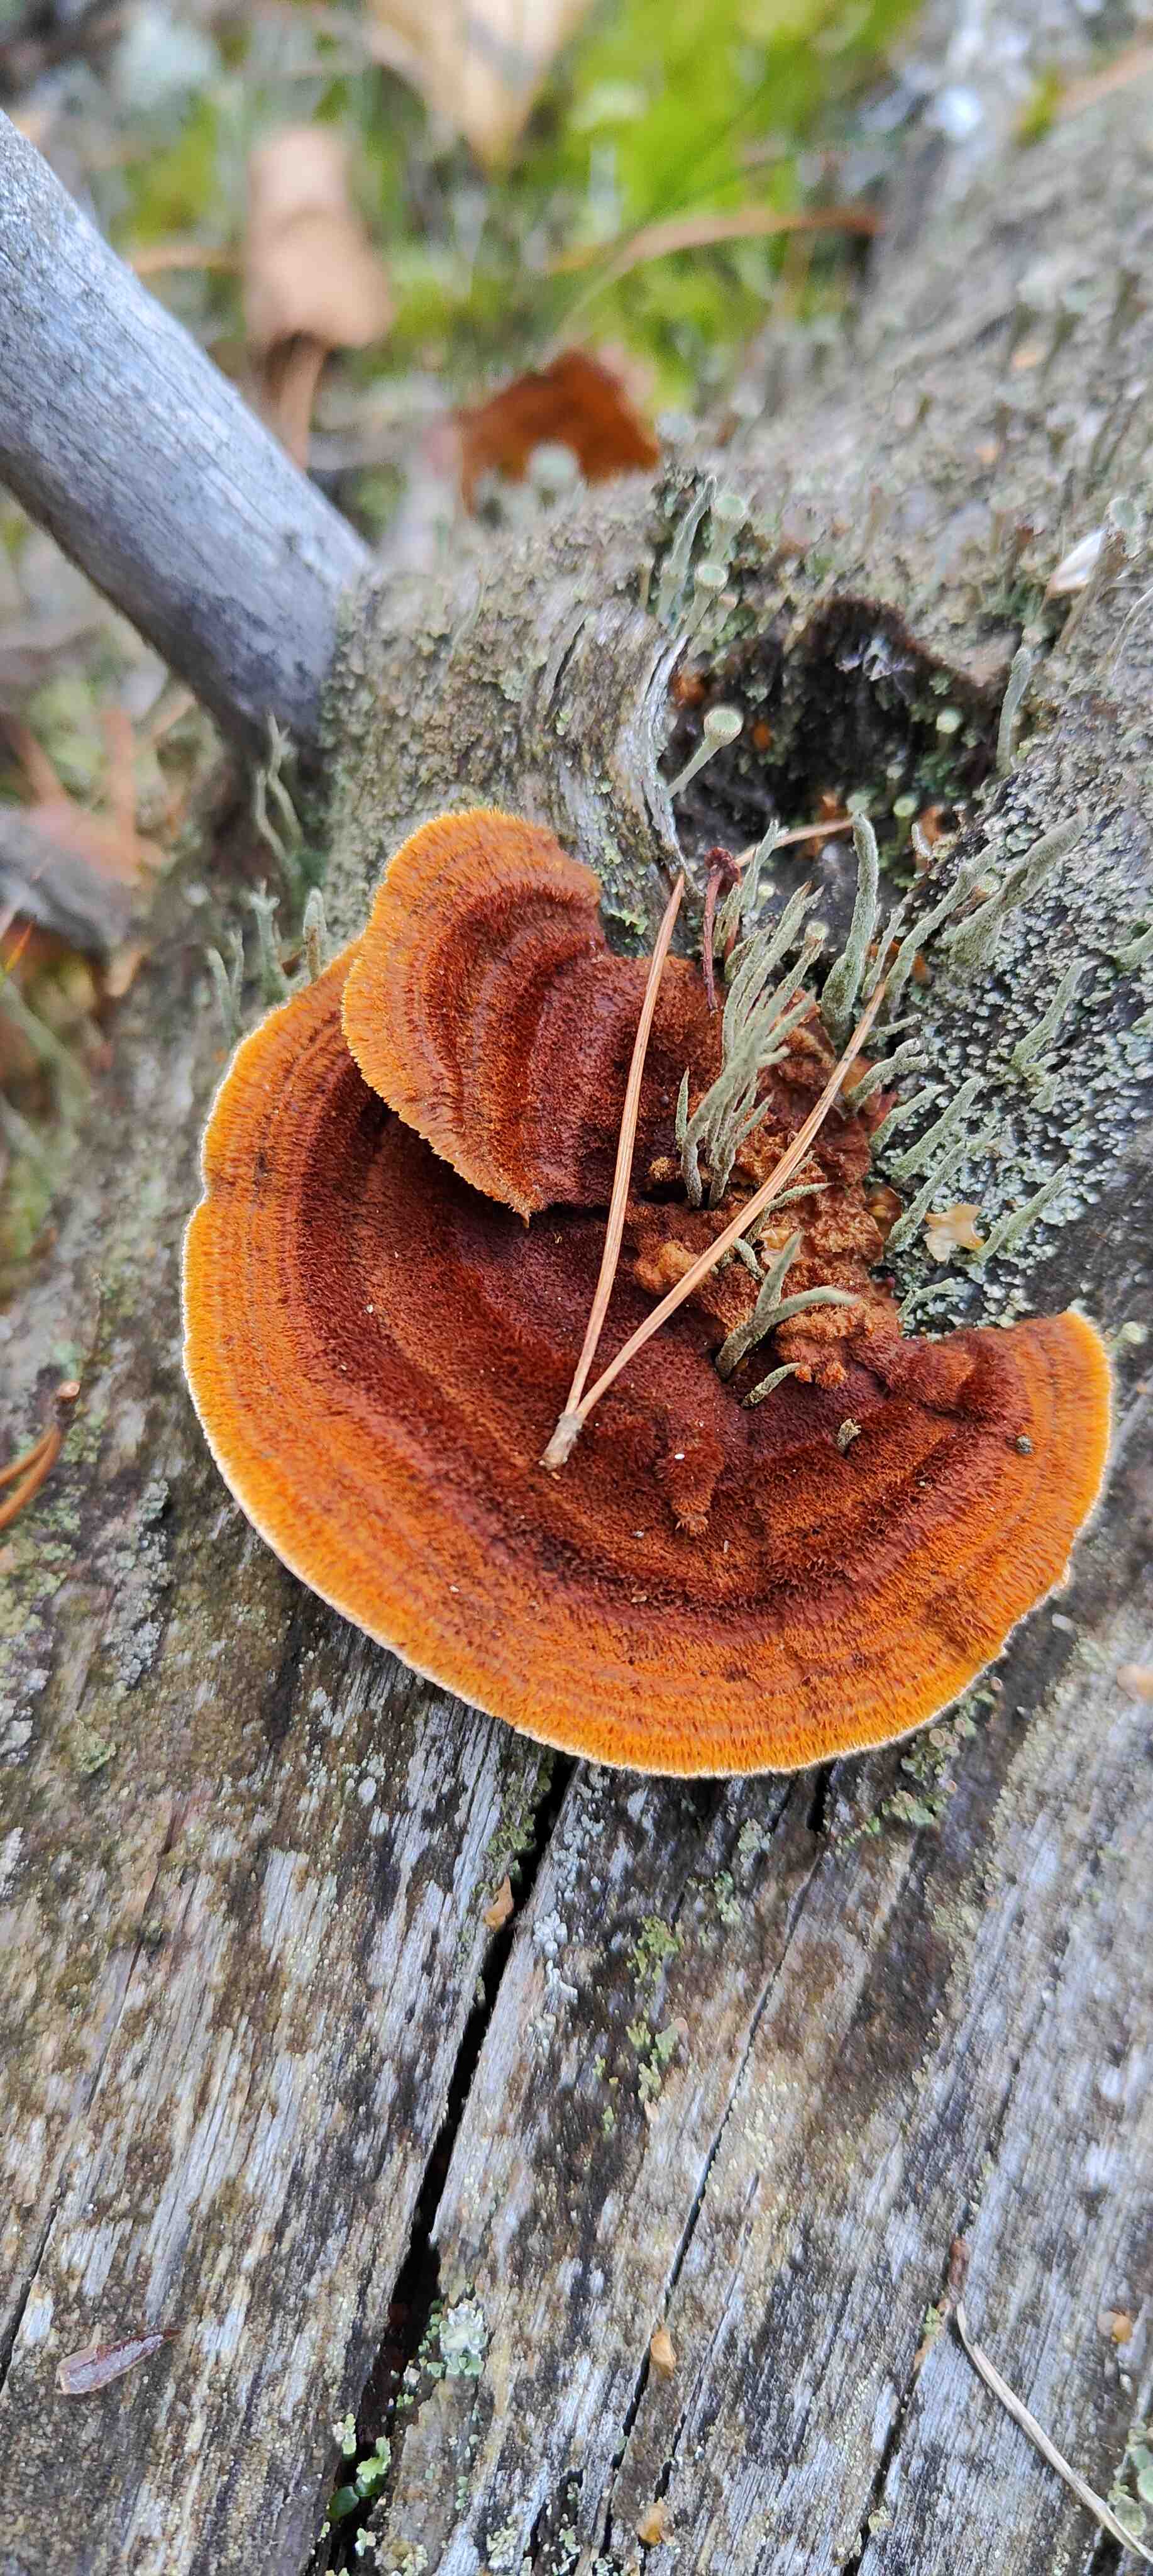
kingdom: Fungi
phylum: Basidiomycota
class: Agaricomycetes
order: Gloeophyllales
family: Gloeophyllaceae
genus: Gloeophyllum
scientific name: Gloeophyllum sepiarium
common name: fyrre-korkhat
